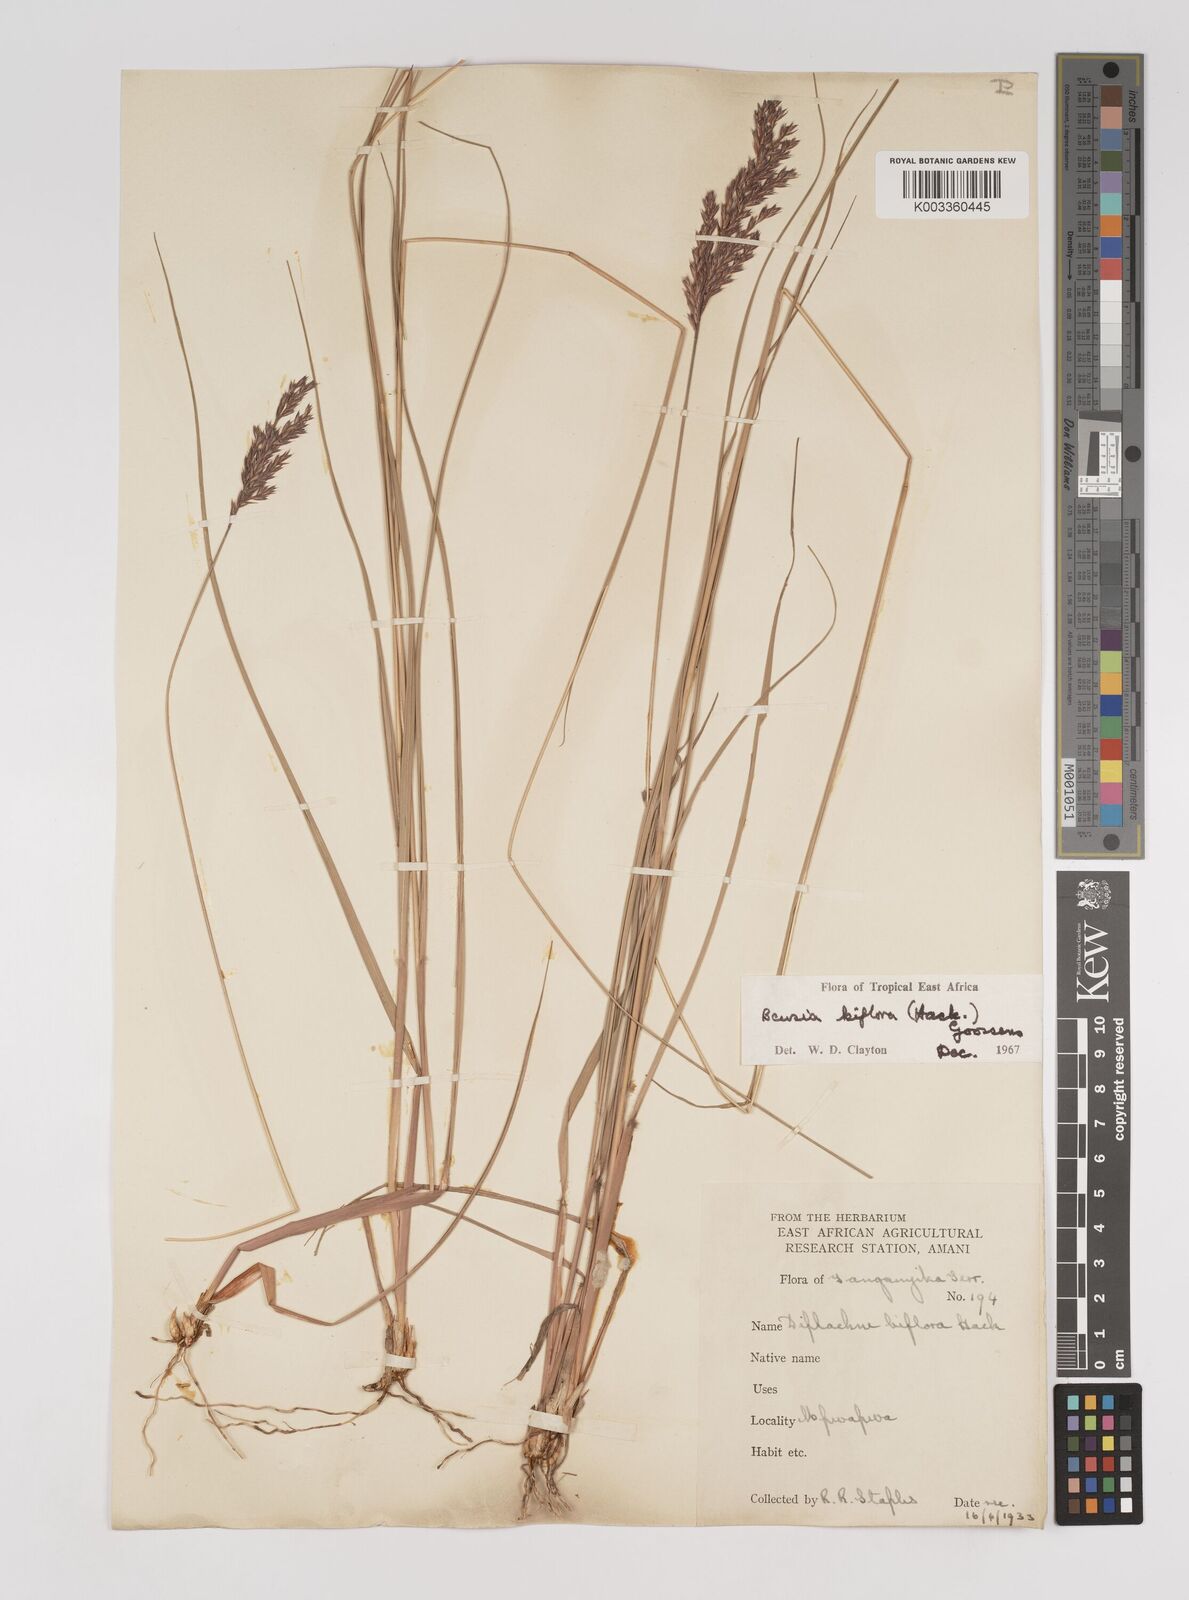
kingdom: Plantae
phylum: Tracheophyta
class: Liliopsida
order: Poales
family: Poaceae
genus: Bewsia
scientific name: Bewsia biflora
